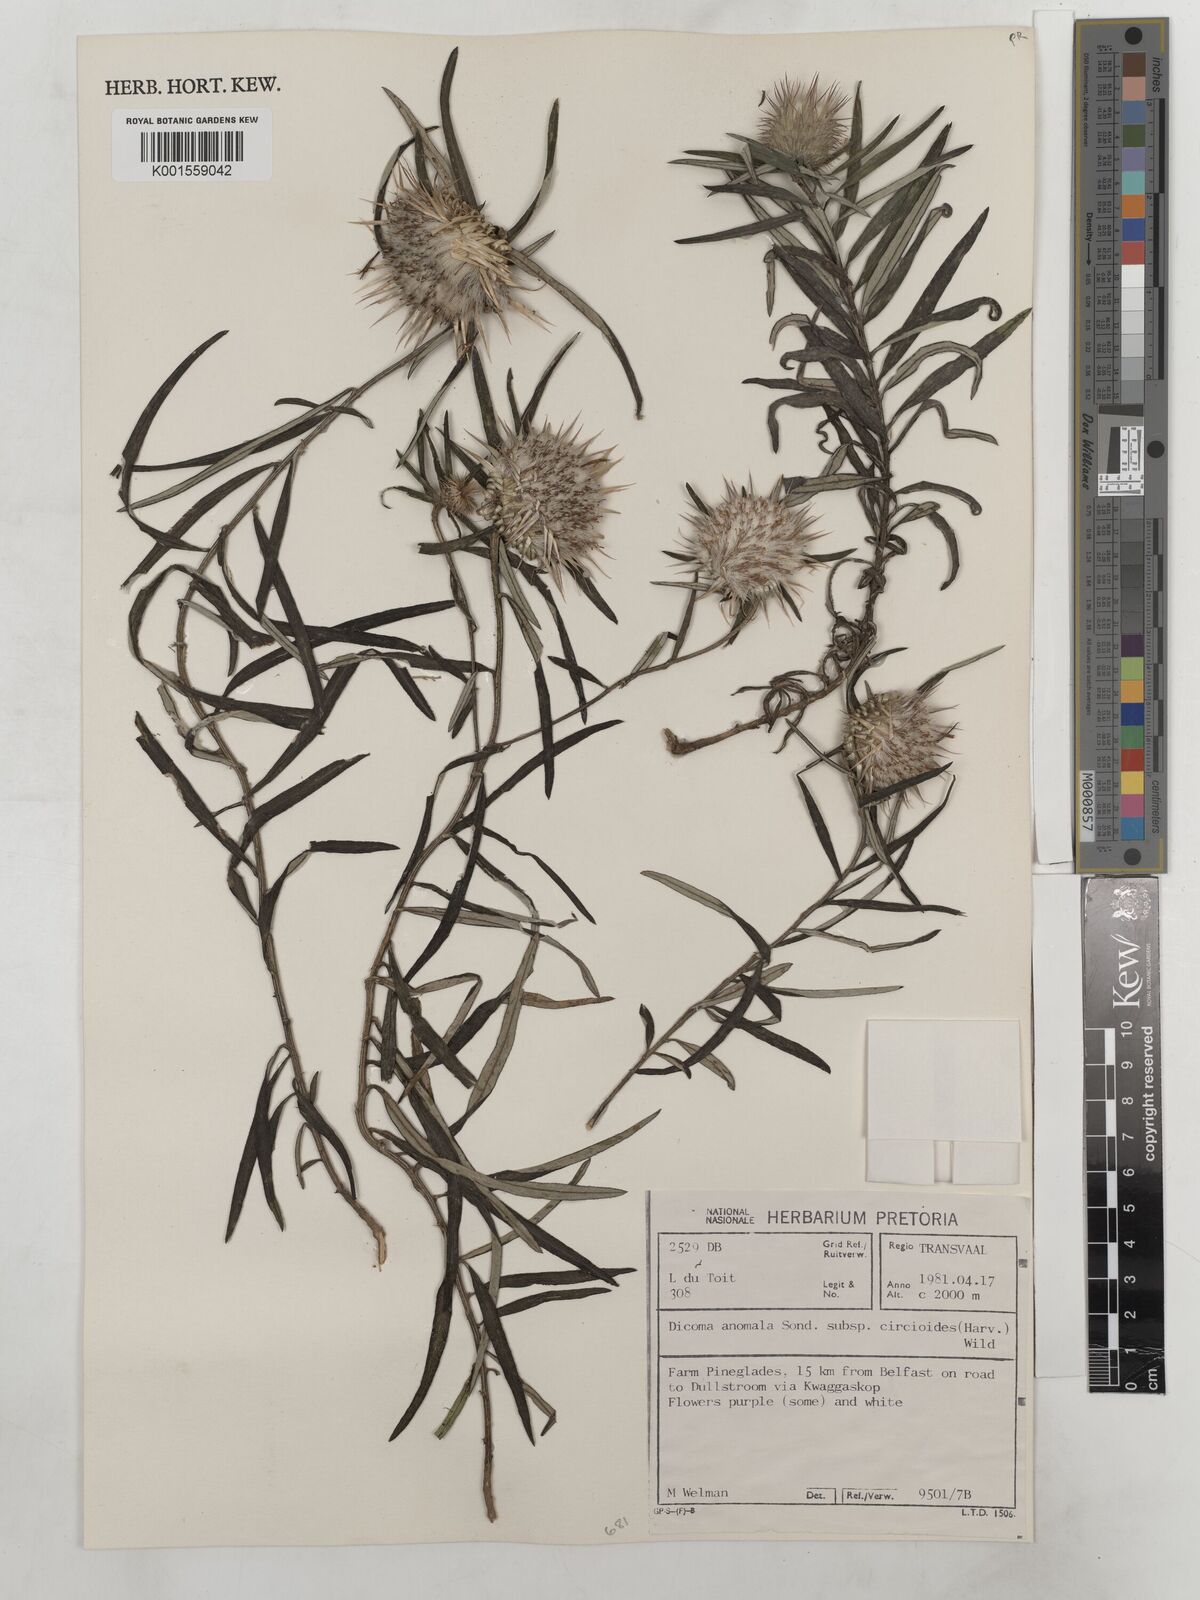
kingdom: Plantae
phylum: Tracheophyta
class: Magnoliopsida
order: Asterales
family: Asteraceae
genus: Dicoma
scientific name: Dicoma anomala
